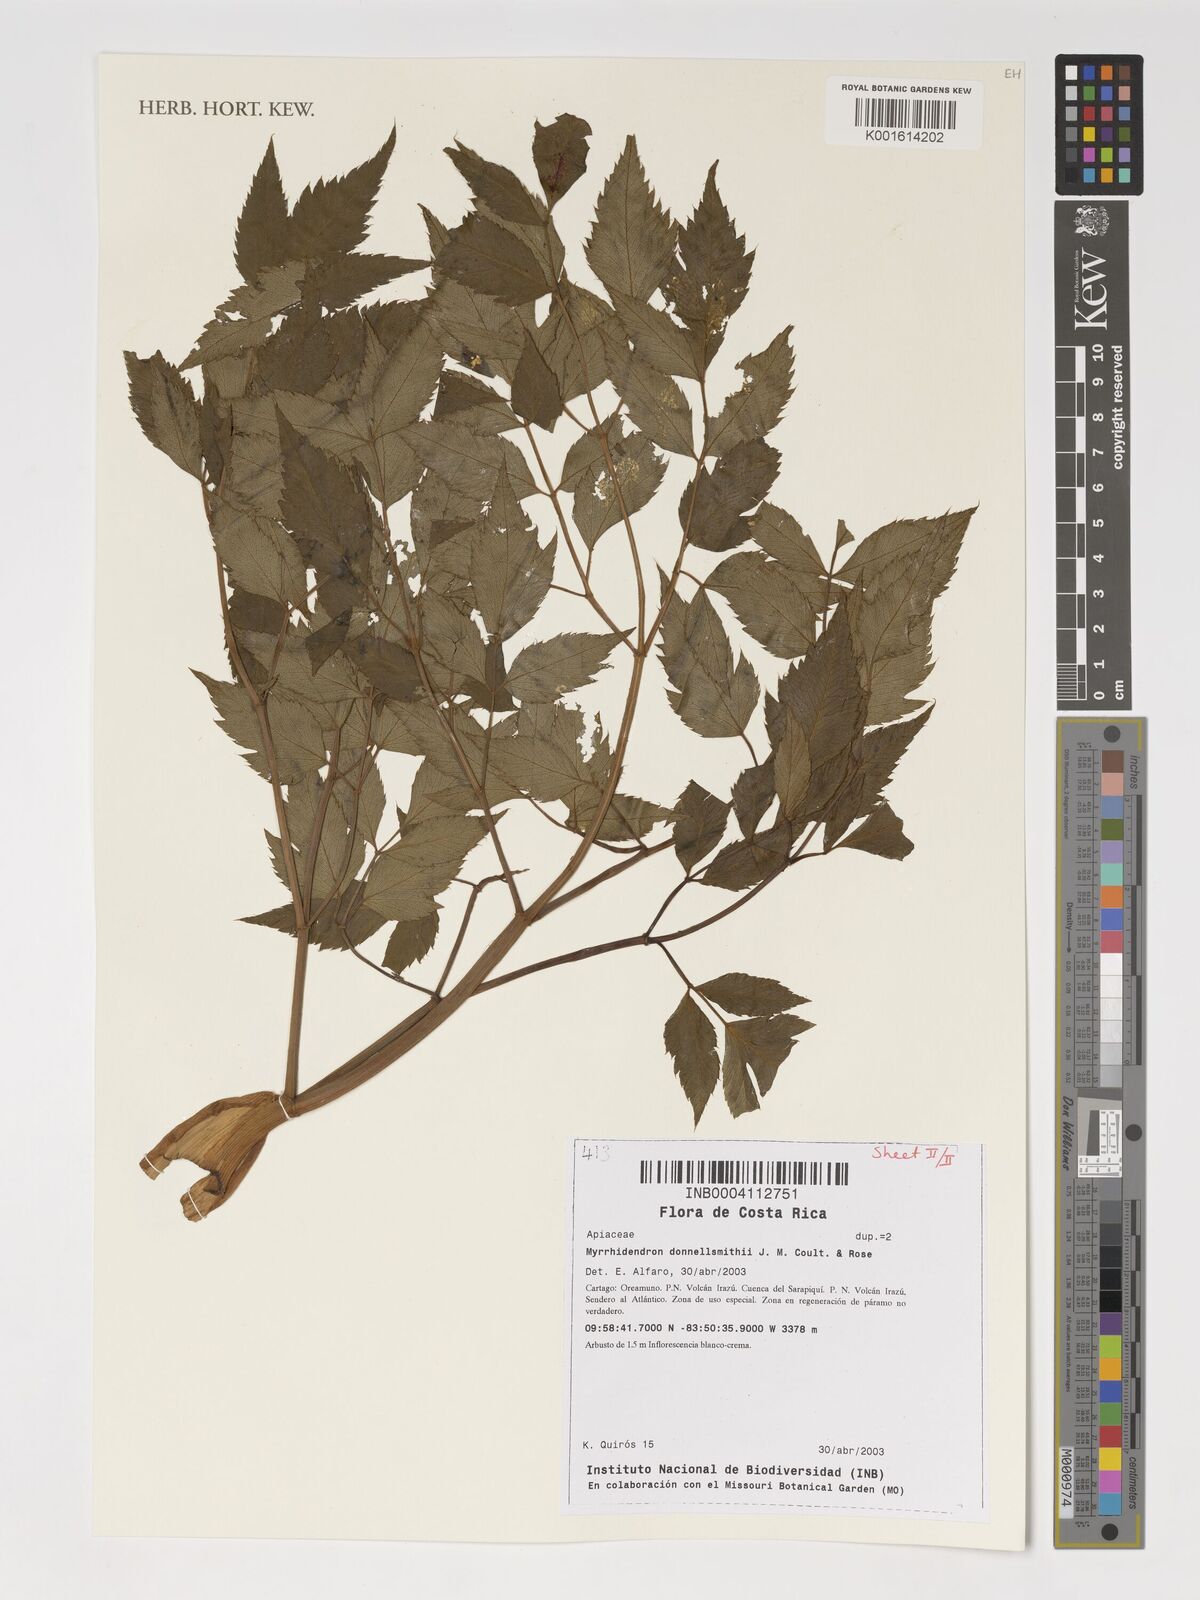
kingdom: Plantae
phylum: Tracheophyta
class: Magnoliopsida
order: Apiales
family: Apiaceae
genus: Myrrhidendron
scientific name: Myrrhidendron donnellsmithii
